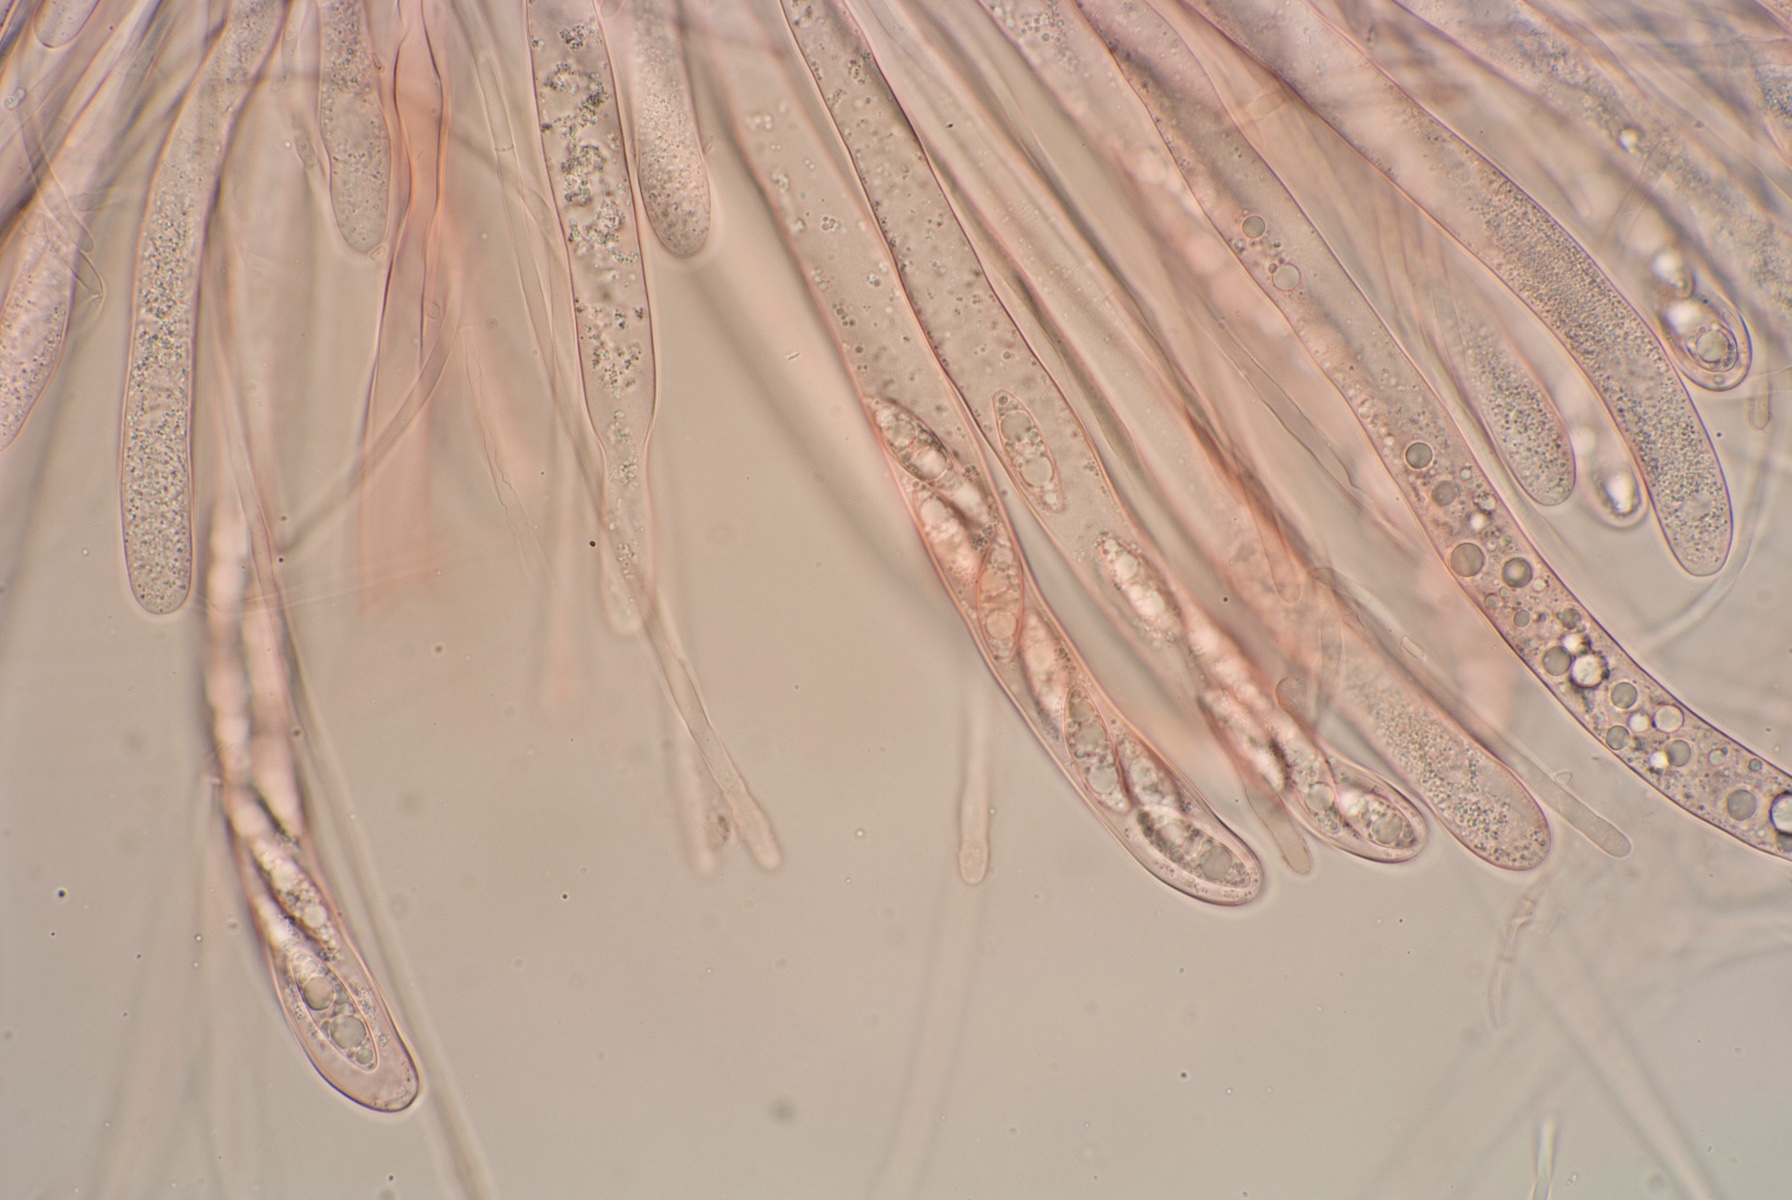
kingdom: Fungi
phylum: Ascomycota
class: Pezizomycetes
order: Pezizales
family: Pezizaceae
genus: Ionopezia
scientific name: Ionopezia gerardii
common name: tensporet bægersvamp
